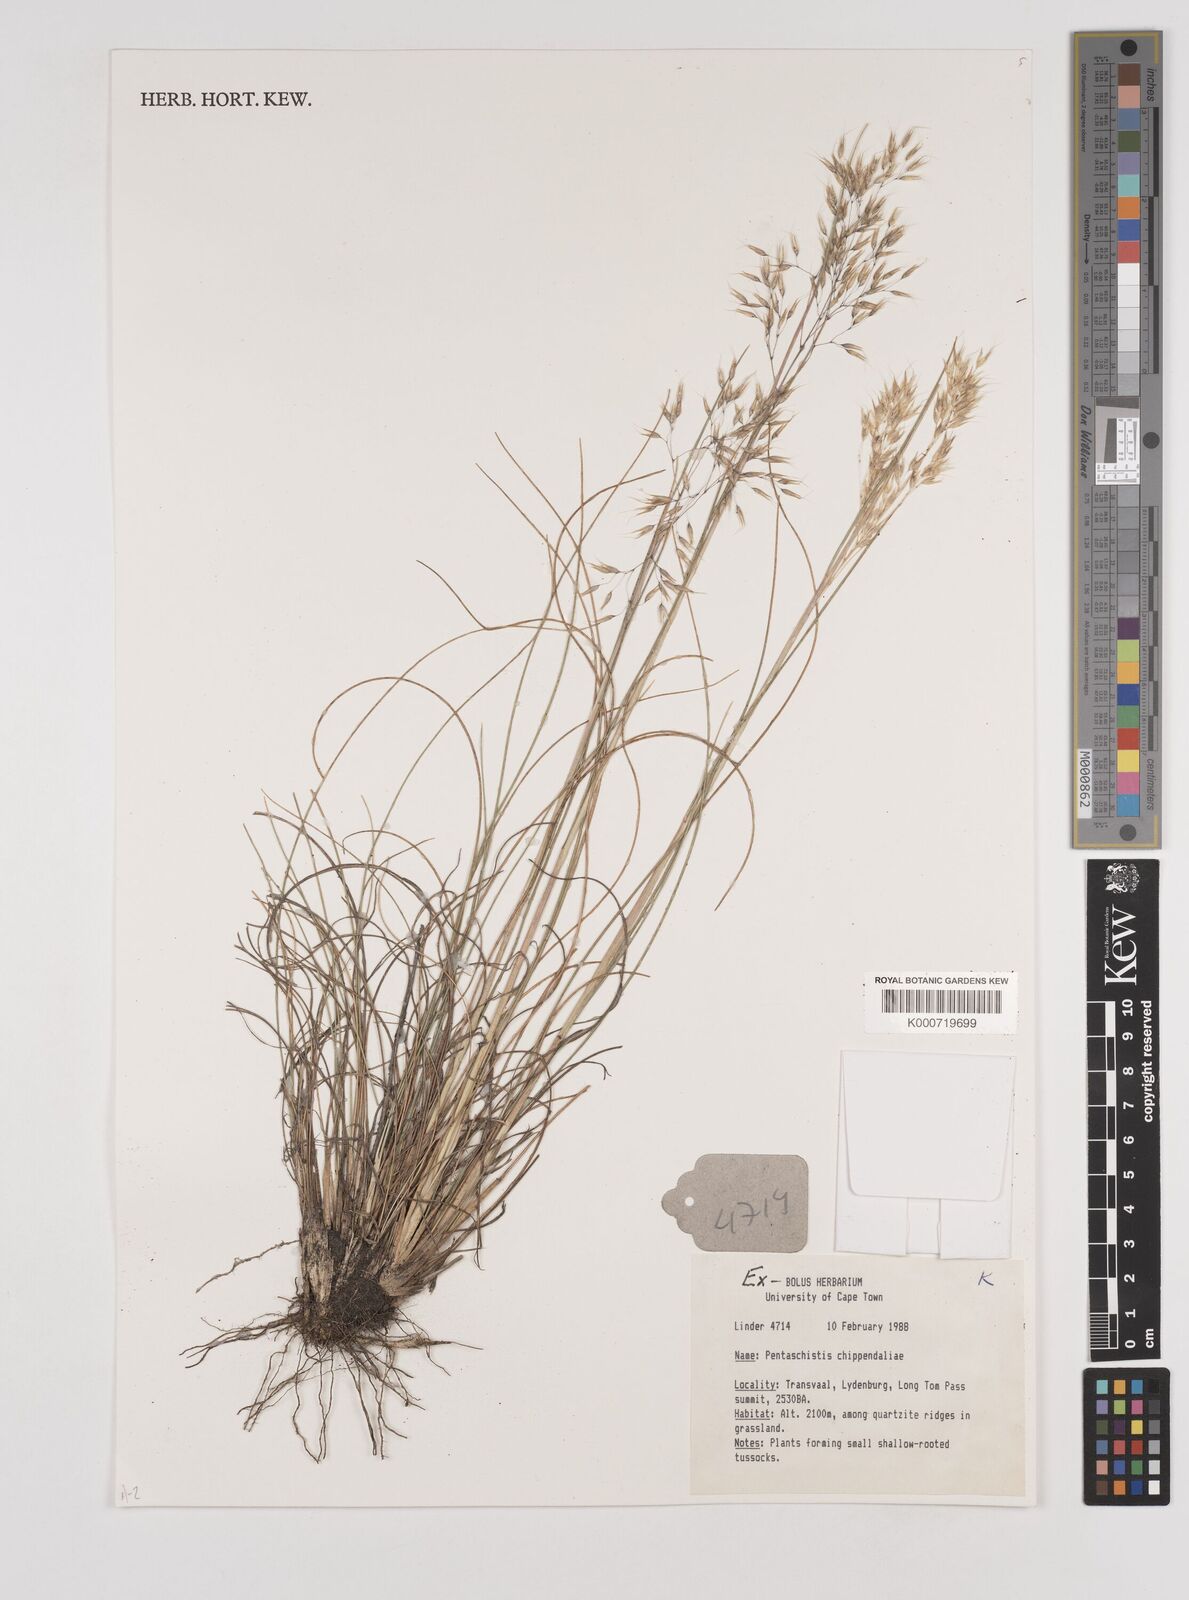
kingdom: Plantae
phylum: Tracheophyta
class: Liliopsida
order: Poales
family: Poaceae
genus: Pentameris
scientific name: Pentameris chippindalliae
